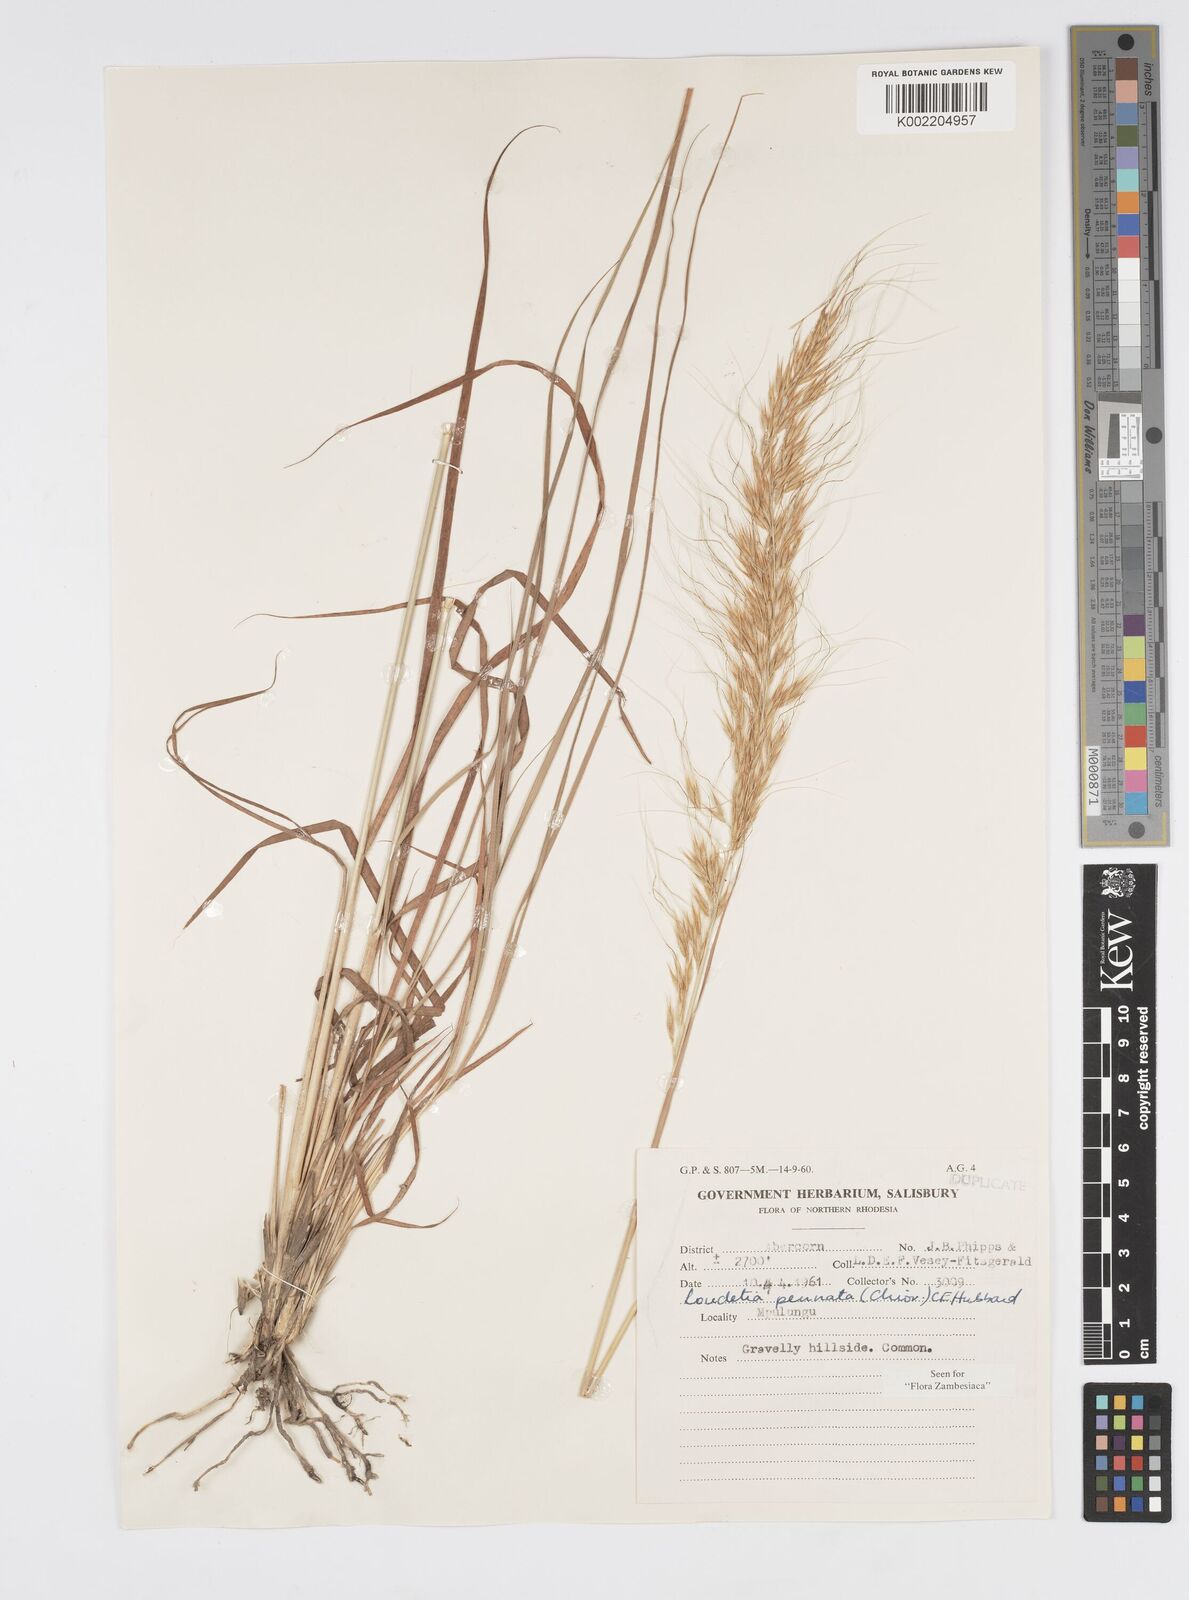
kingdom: Plantae
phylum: Tracheophyta
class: Liliopsida
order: Poales
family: Poaceae
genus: Loudetia
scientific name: Loudetia flavida
